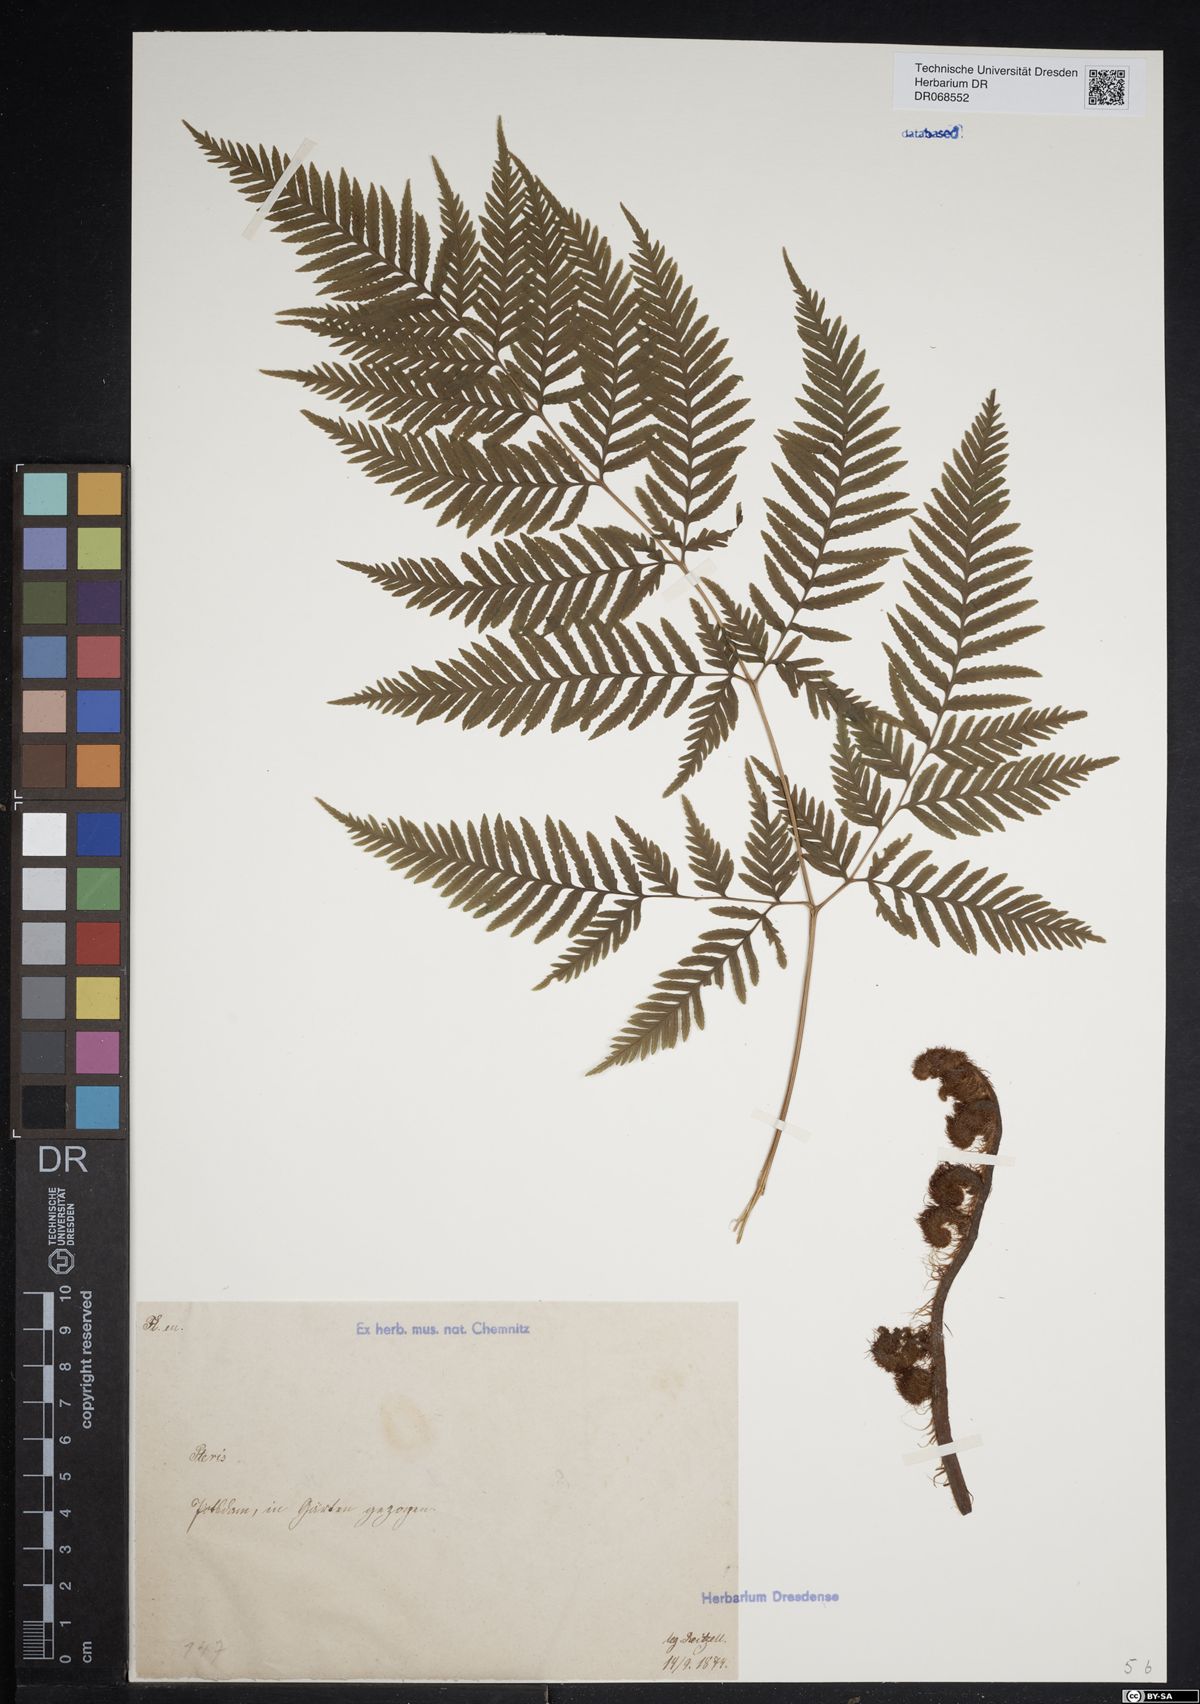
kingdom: Plantae
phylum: Tracheophyta
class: Polypodiopsida
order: Polypodiales
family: Pteridaceae
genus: Pteris
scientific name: Pteris
